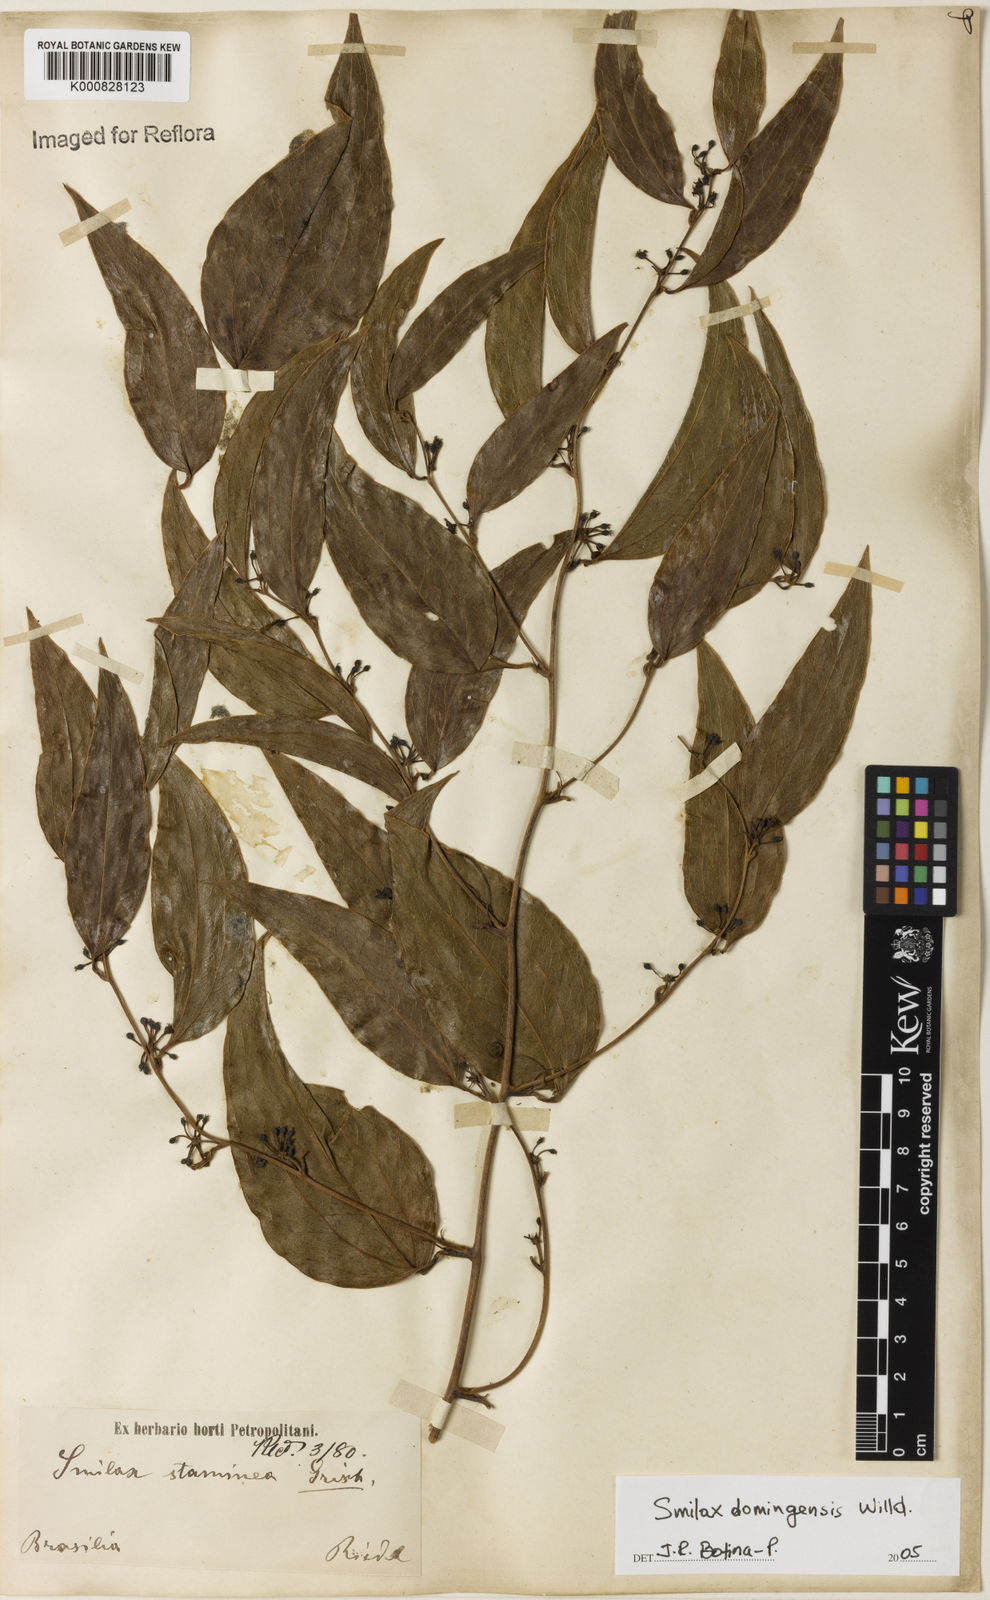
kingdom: Plantae
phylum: Tracheophyta
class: Liliopsida
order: Liliales
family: Smilacaceae
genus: Smilax
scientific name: Smilax domingensis
